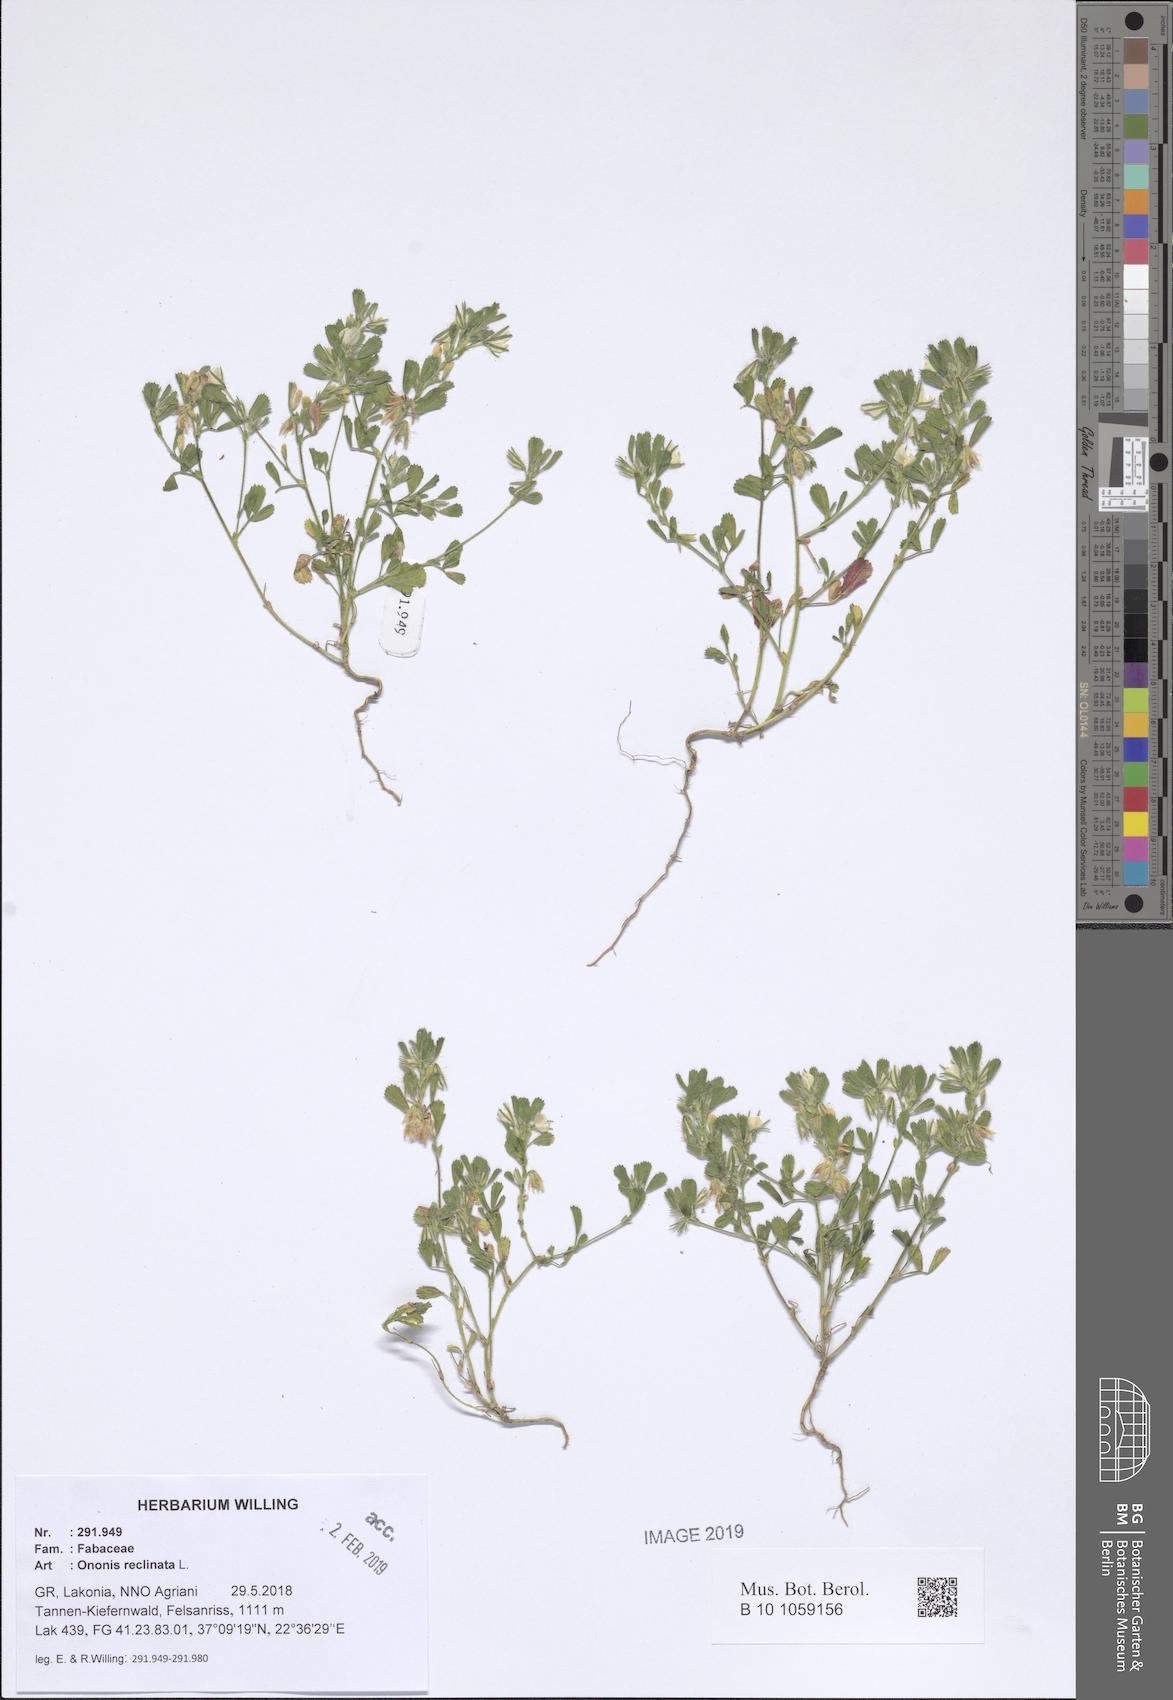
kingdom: Plantae
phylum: Tracheophyta
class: Magnoliopsida
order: Fabales
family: Fabaceae
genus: Ononis
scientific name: Ononis reclinata
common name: Small restharrow
